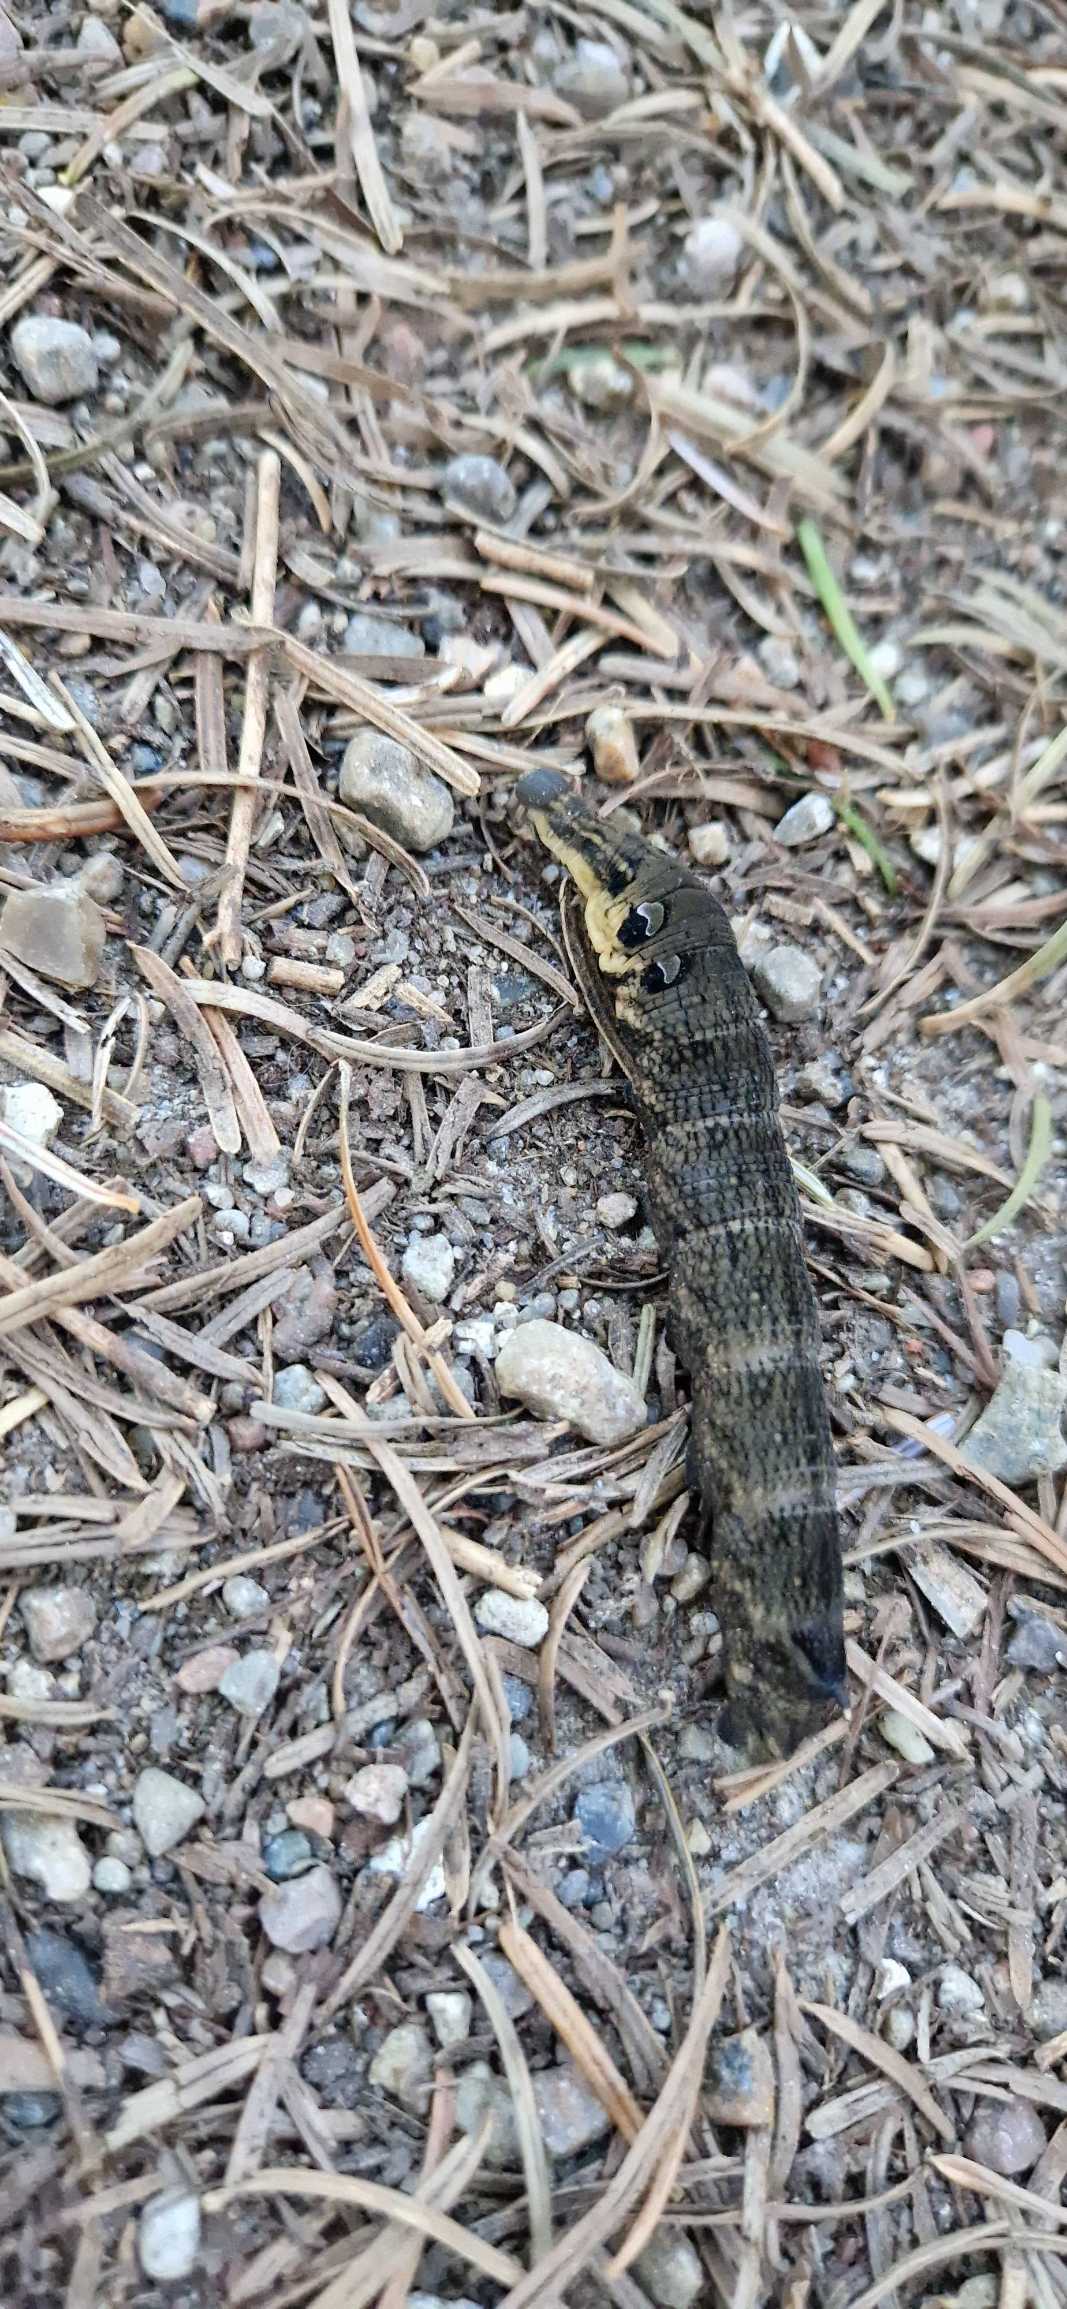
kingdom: Animalia
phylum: Arthropoda
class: Insecta
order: Lepidoptera
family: Sphingidae
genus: Deilephila
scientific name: Deilephila elpenor
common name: Dueurtsværmer
